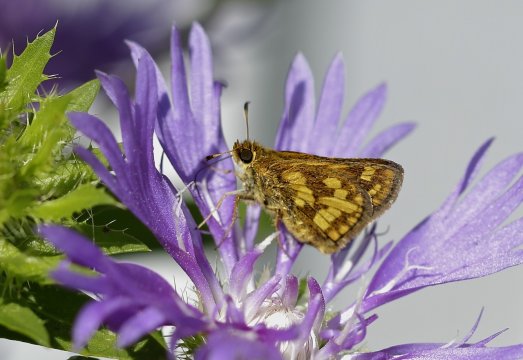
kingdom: Animalia
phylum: Arthropoda
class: Insecta
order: Lepidoptera
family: Hesperiidae
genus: Polites
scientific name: Polites coras
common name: Peck's Skipper
